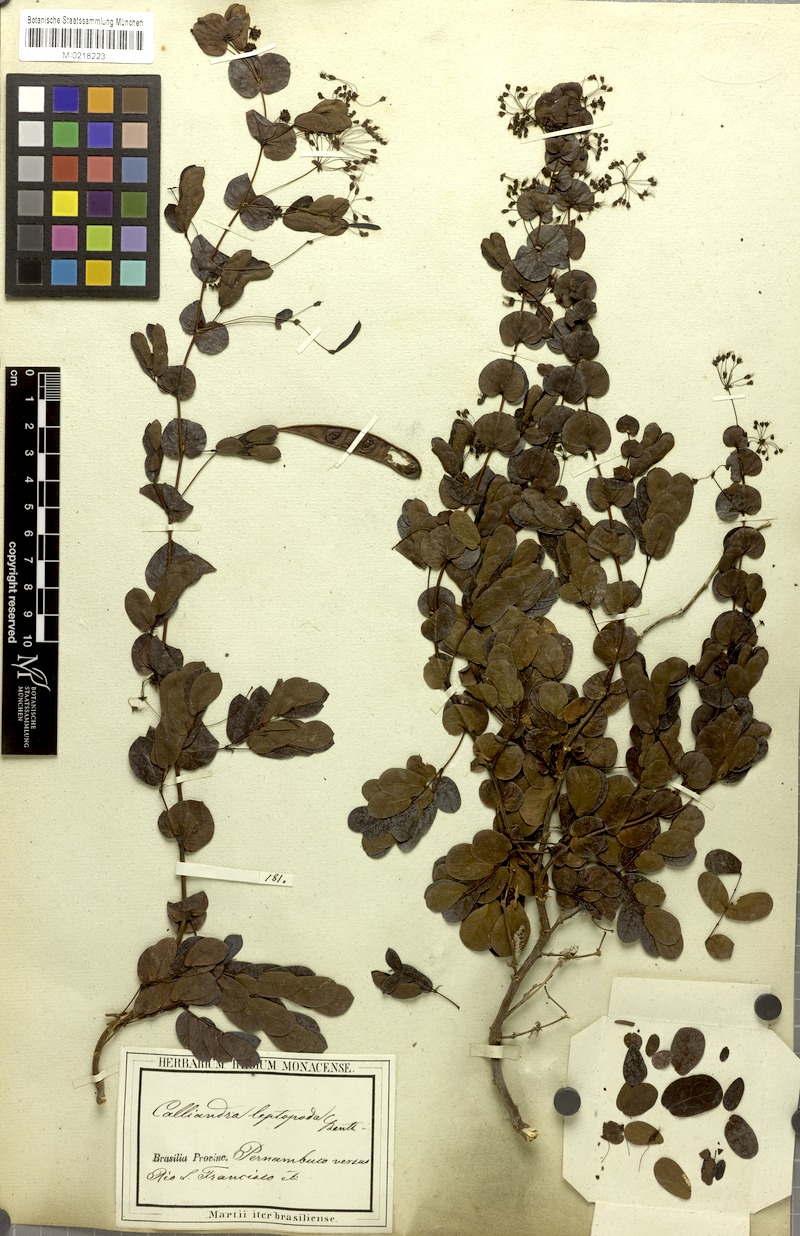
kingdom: Plantae
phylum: Tracheophyta
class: Magnoliopsida
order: Fabales
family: Fabaceae
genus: Calliandra
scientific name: Calliandra leptopoda
